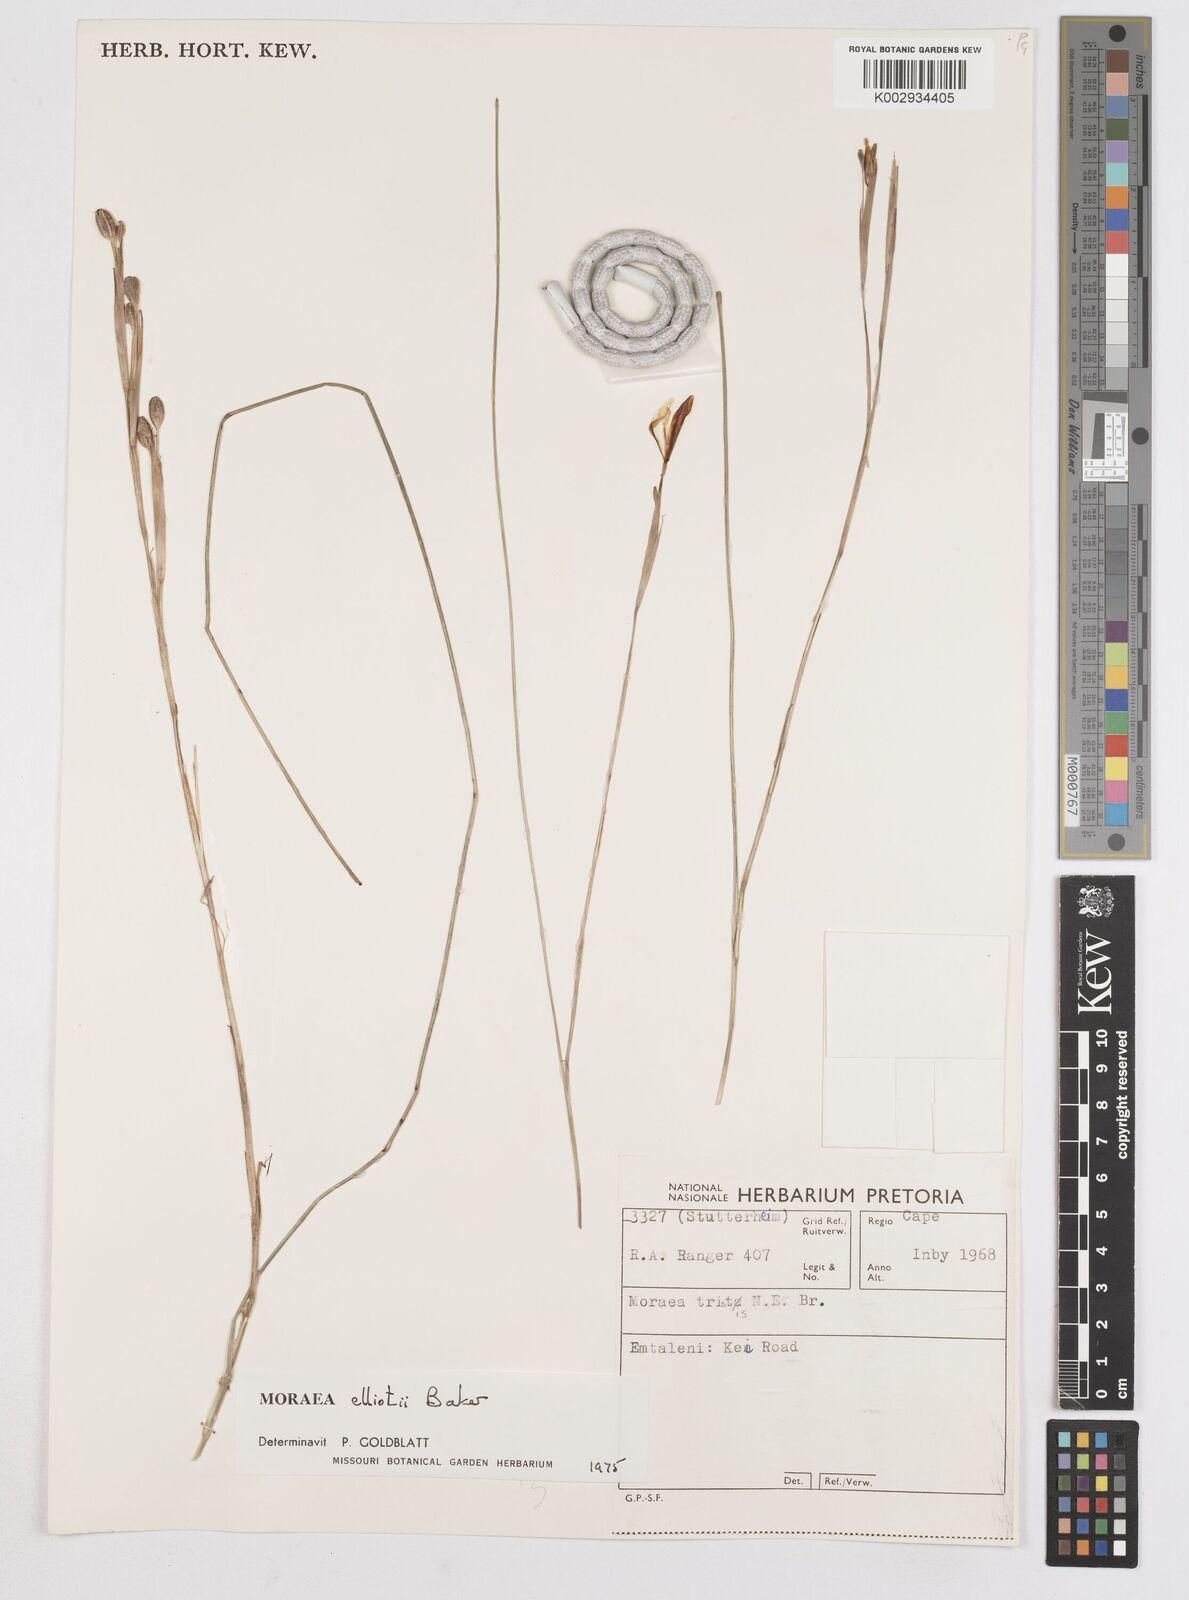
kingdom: Plantae
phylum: Tracheophyta
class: Liliopsida
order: Asparagales
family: Iridaceae
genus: Moraea
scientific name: Moraea elliotii
